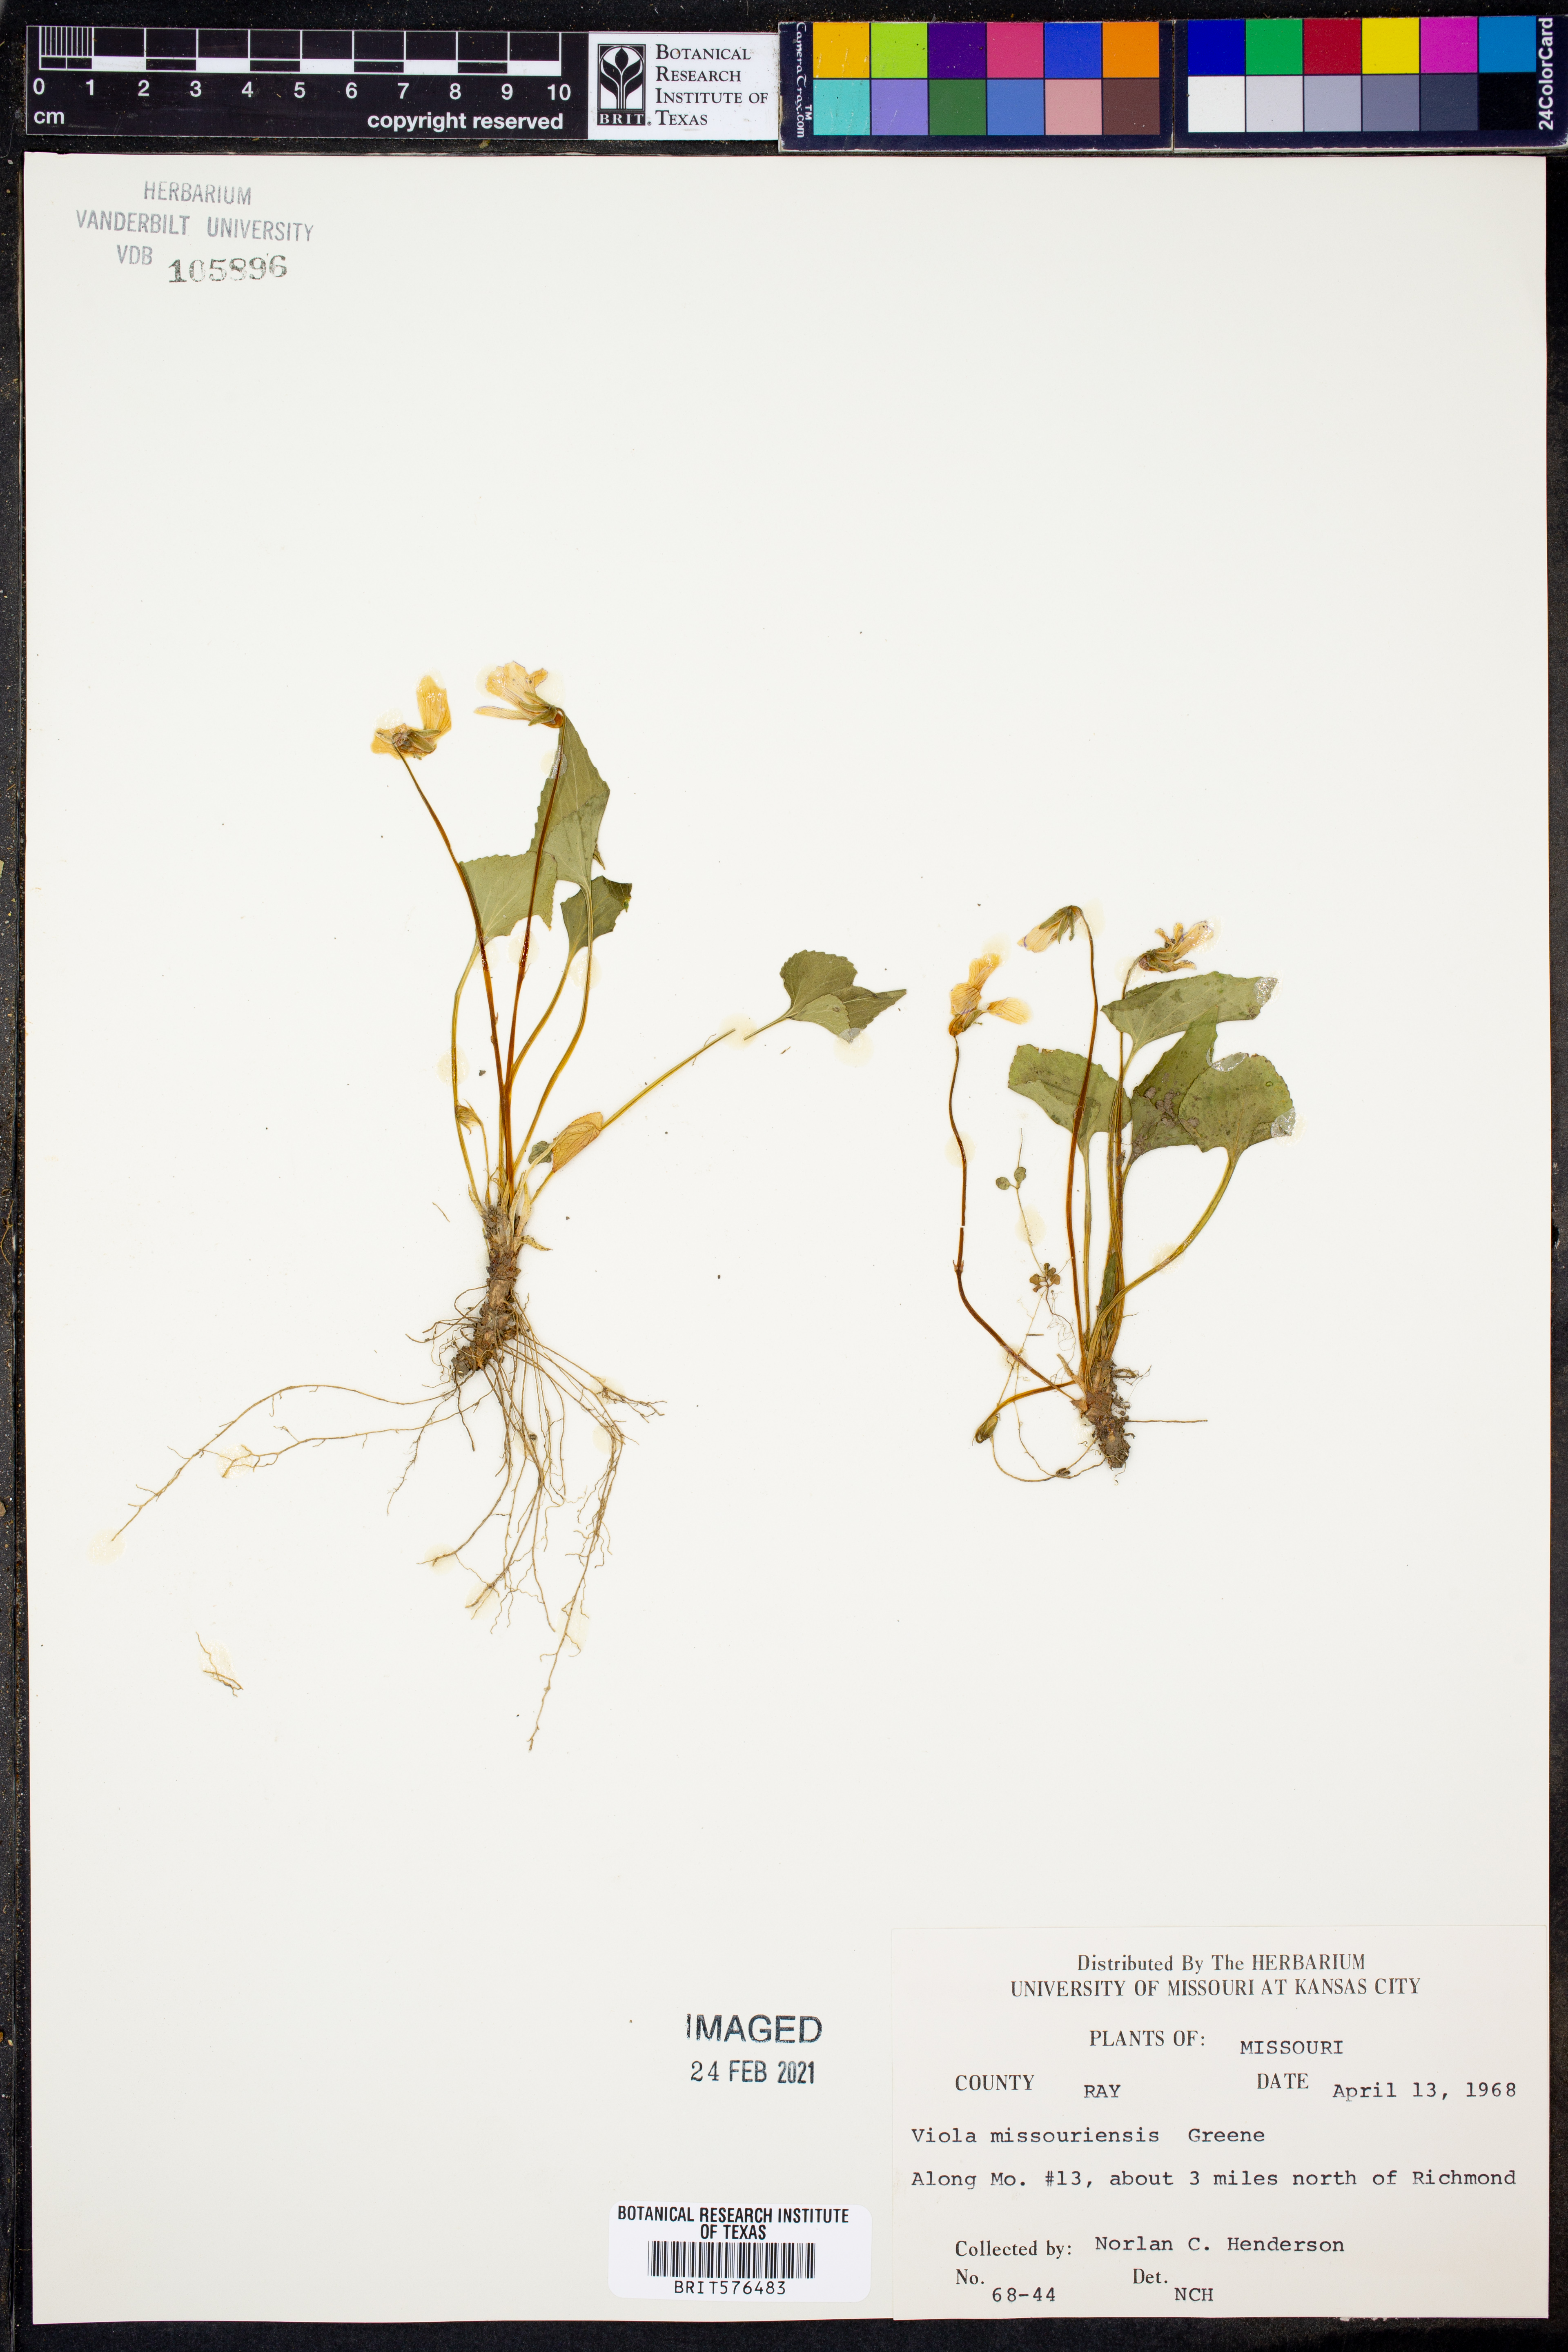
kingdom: Plantae
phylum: Tracheophyta
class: Magnoliopsida
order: Malpighiales
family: Violaceae
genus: Viola
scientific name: Viola missouriensis
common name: Missouri violet
